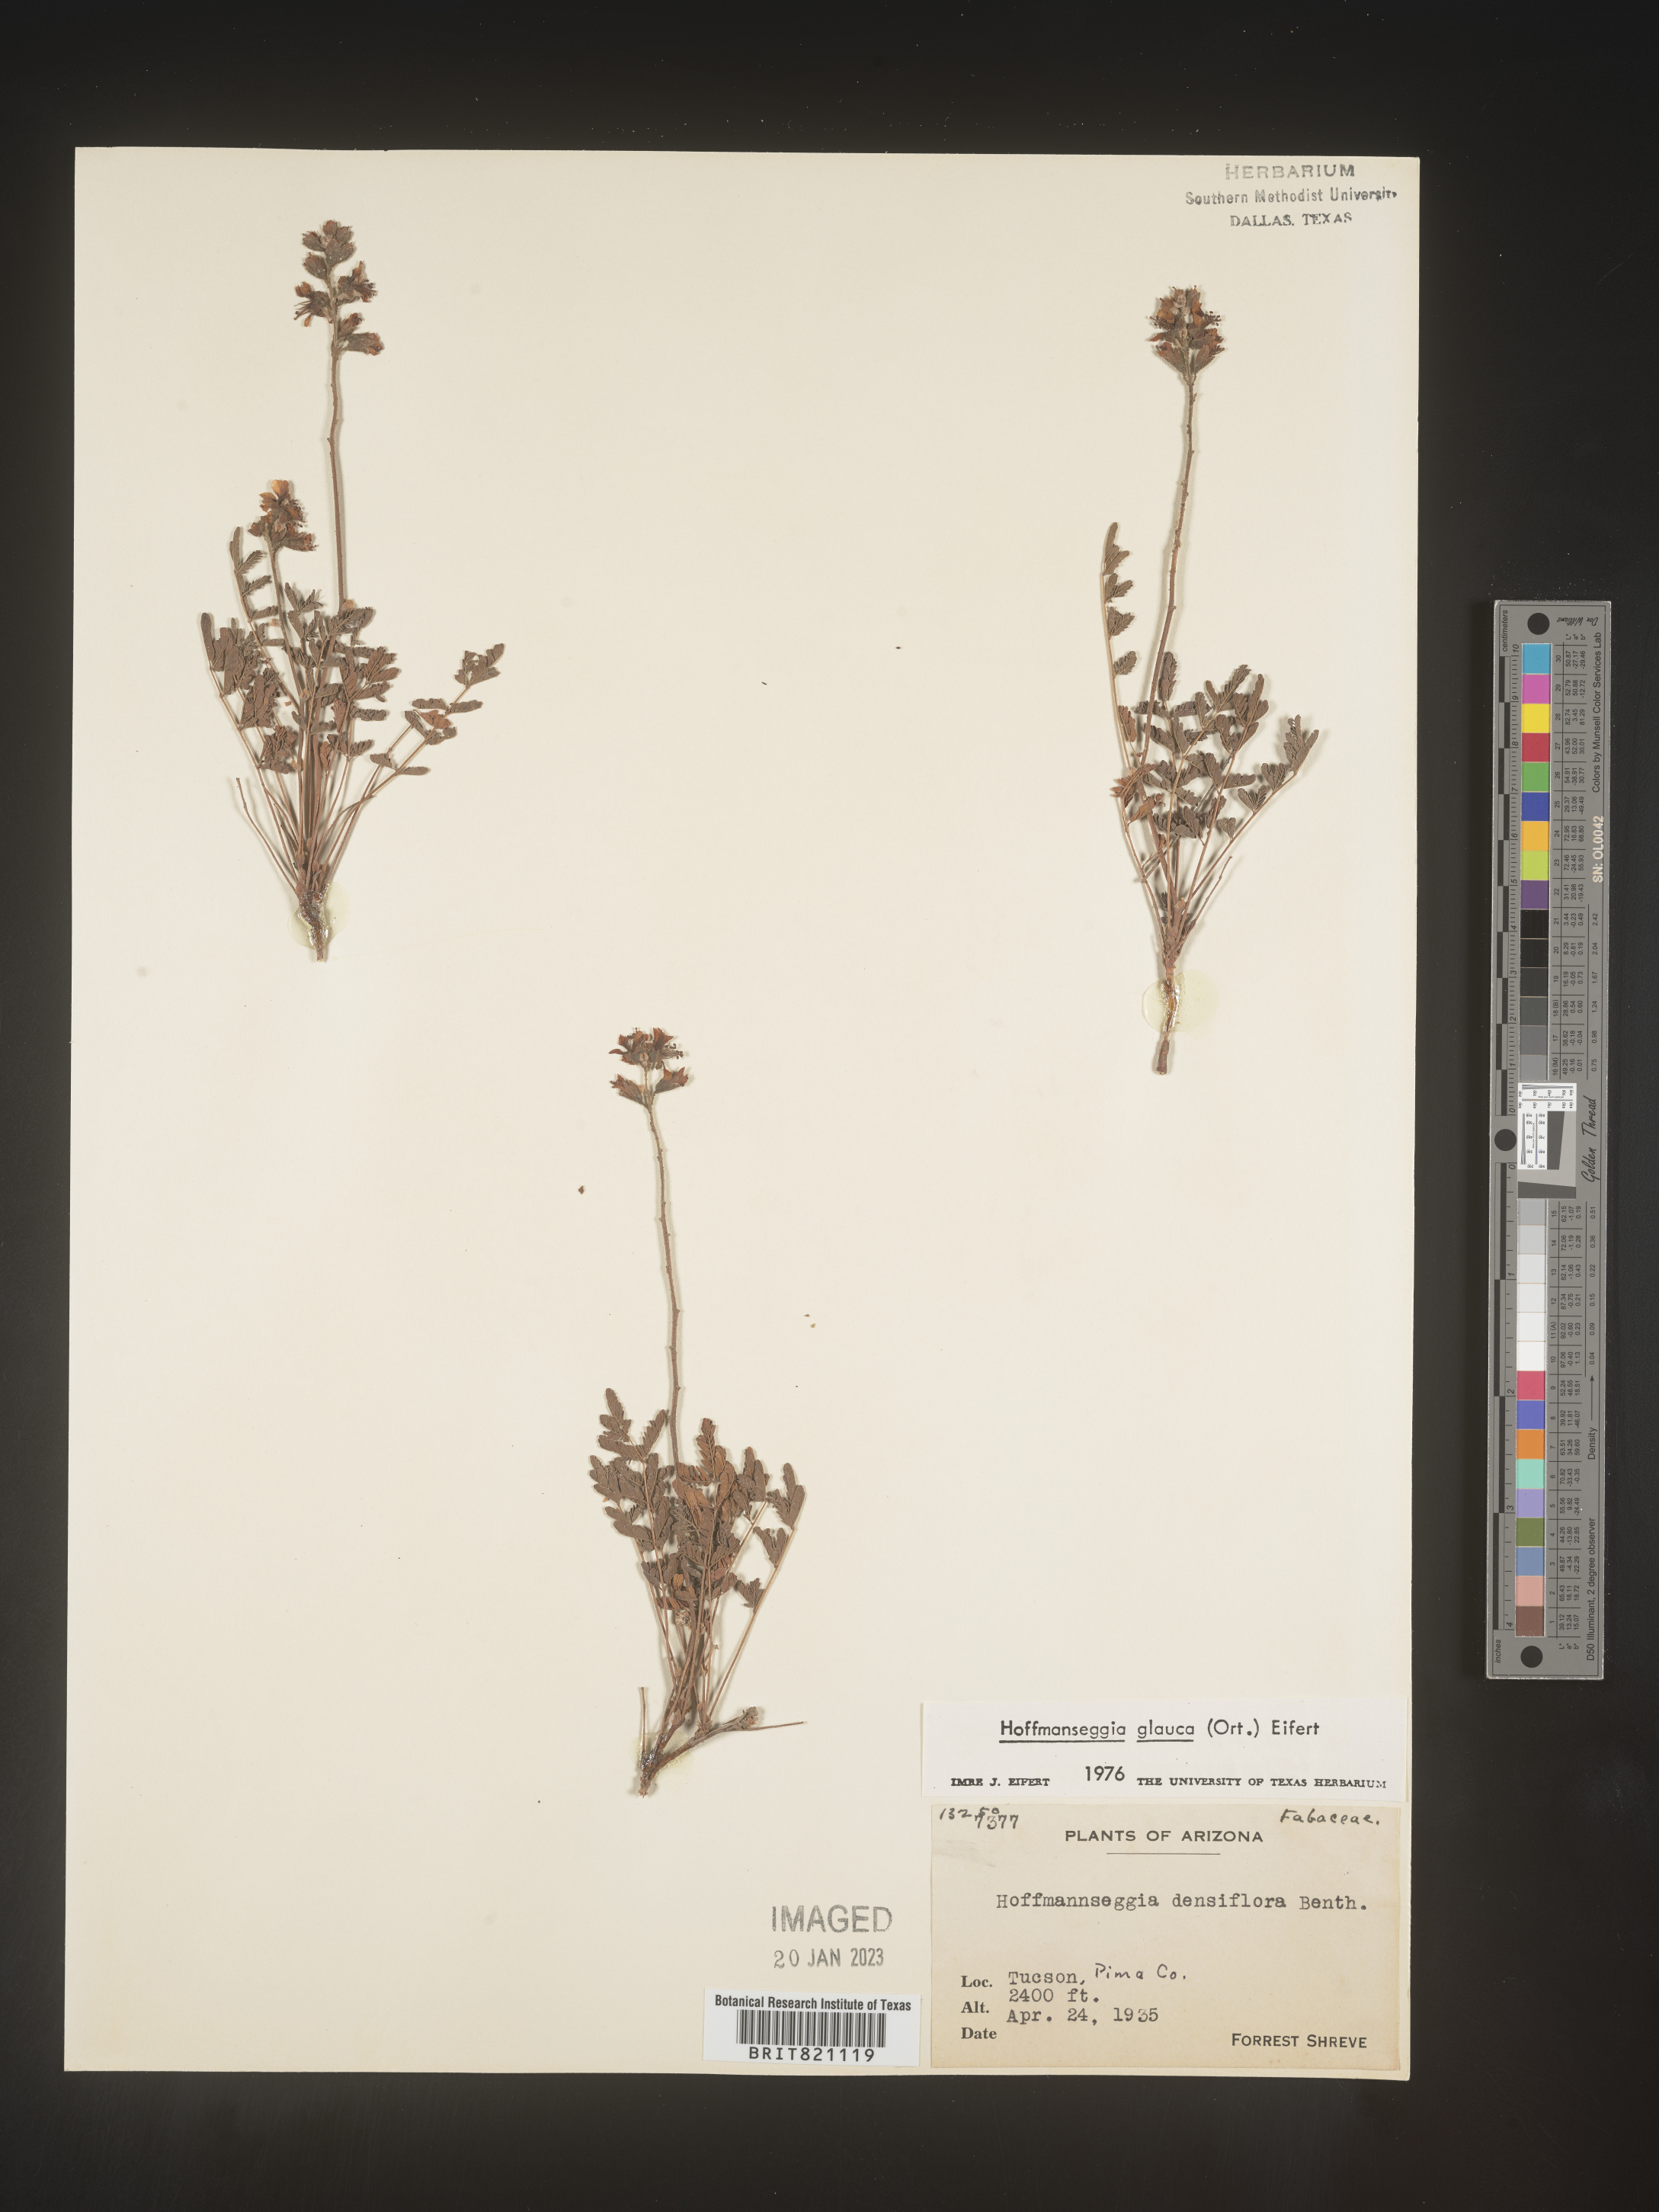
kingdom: Plantae
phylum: Tracheophyta
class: Magnoliopsida
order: Fabales
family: Fabaceae
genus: Hoffmannseggia
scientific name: Hoffmannseggia
